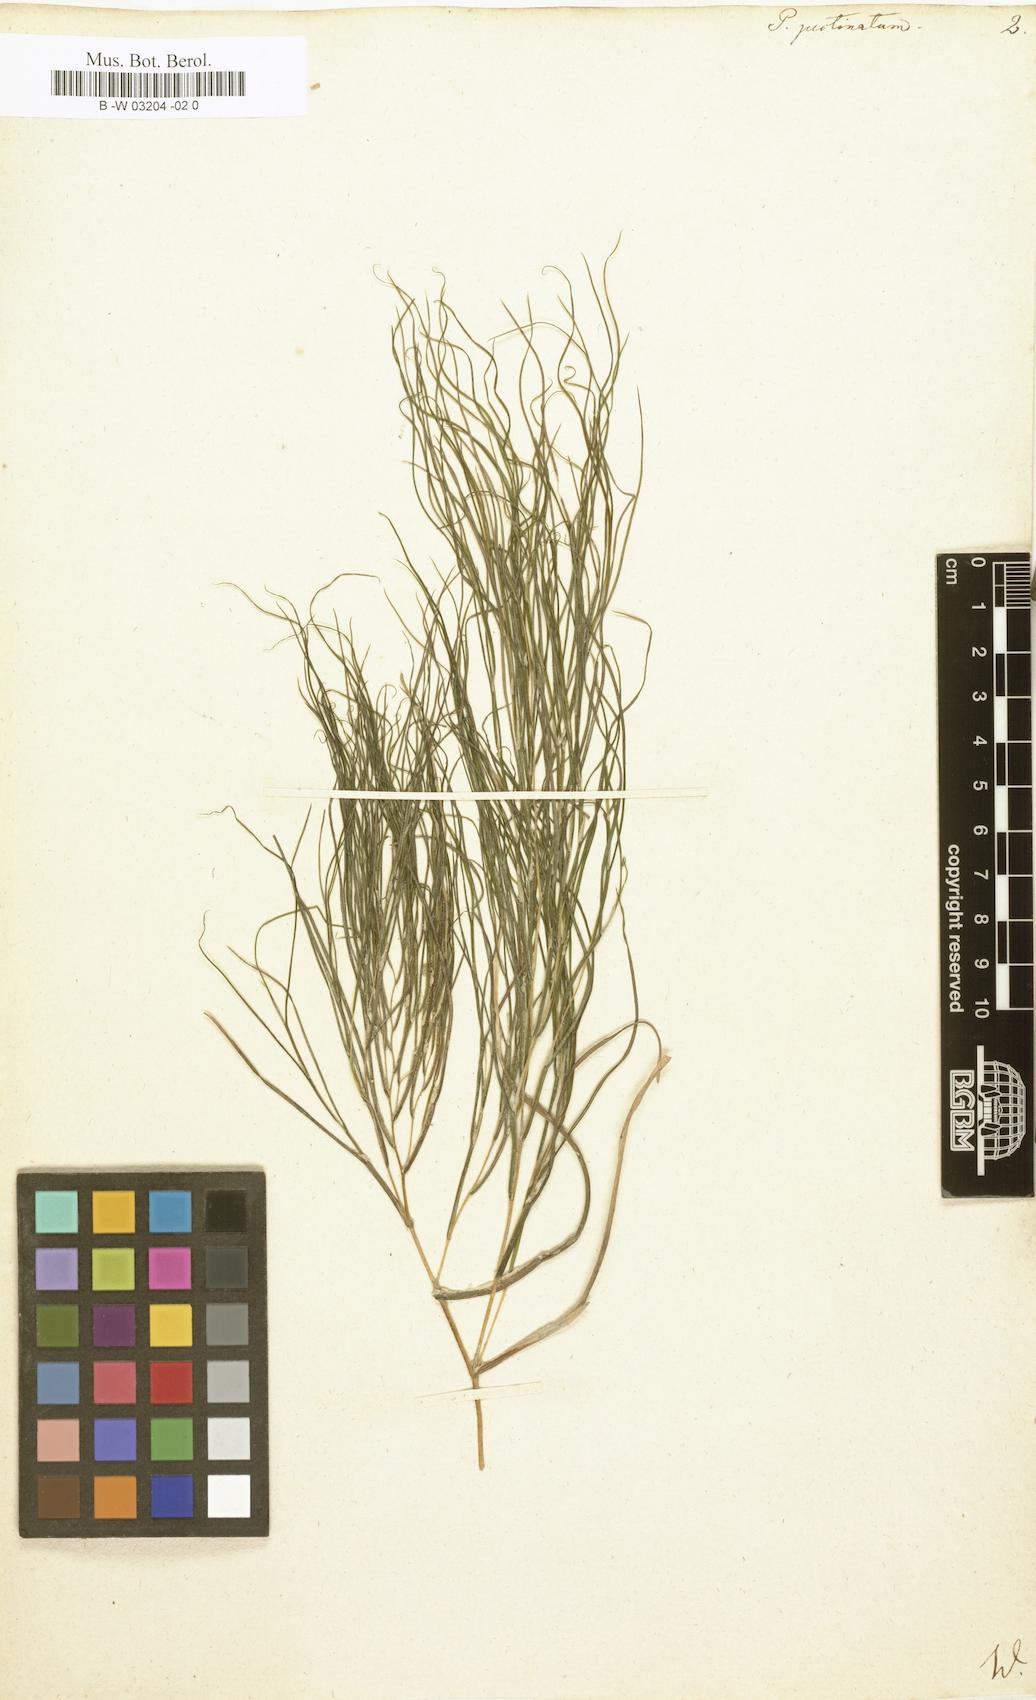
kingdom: Plantae
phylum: Tracheophyta
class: Liliopsida
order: Alismatales
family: Potamogetonaceae
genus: Stuckenia
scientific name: Stuckenia pectinata
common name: Sago pondweed
